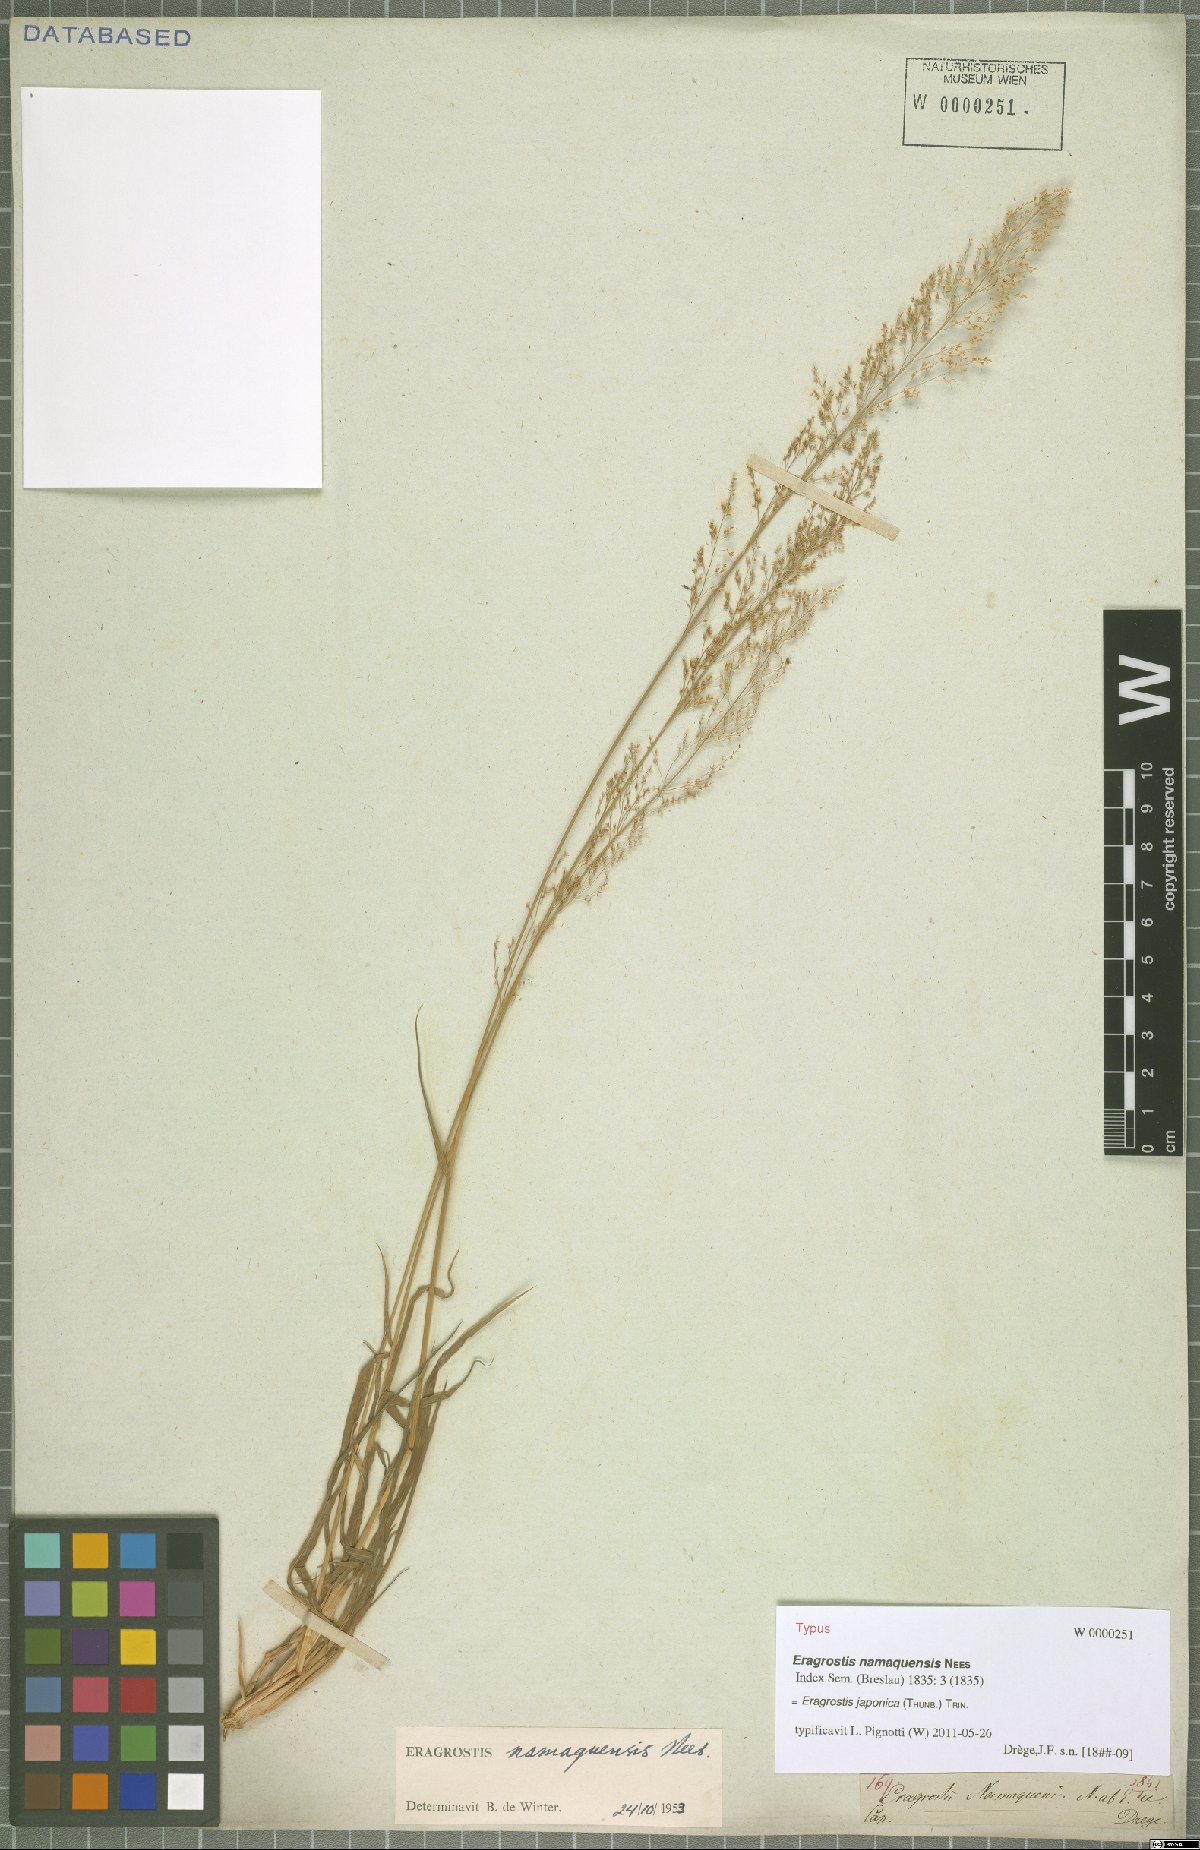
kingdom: Plantae
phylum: Tracheophyta
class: Liliopsida
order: Poales
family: Poaceae
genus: Eragrostis
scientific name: Eragrostis japonica
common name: Pond lovegrass
